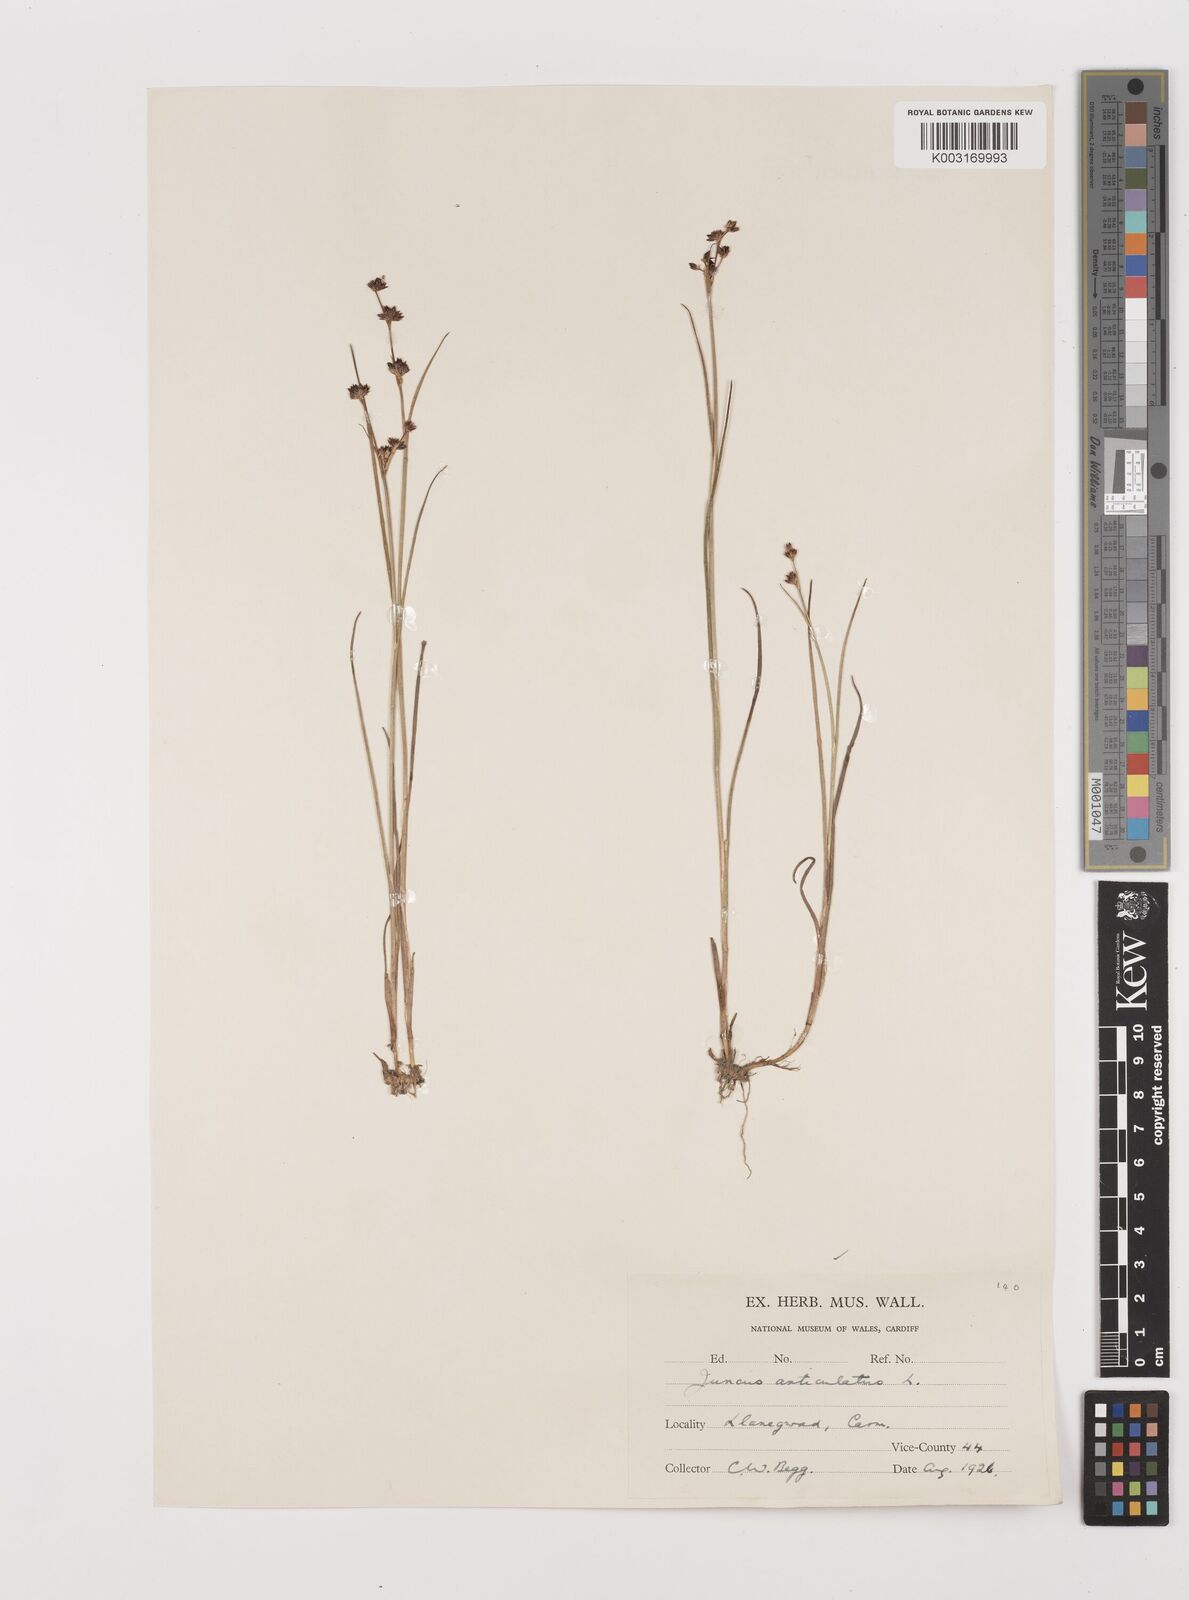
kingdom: Plantae
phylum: Tracheophyta
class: Liliopsida
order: Poales
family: Juncaceae
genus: Juncus
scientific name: Juncus articulatus
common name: Jointed rush
